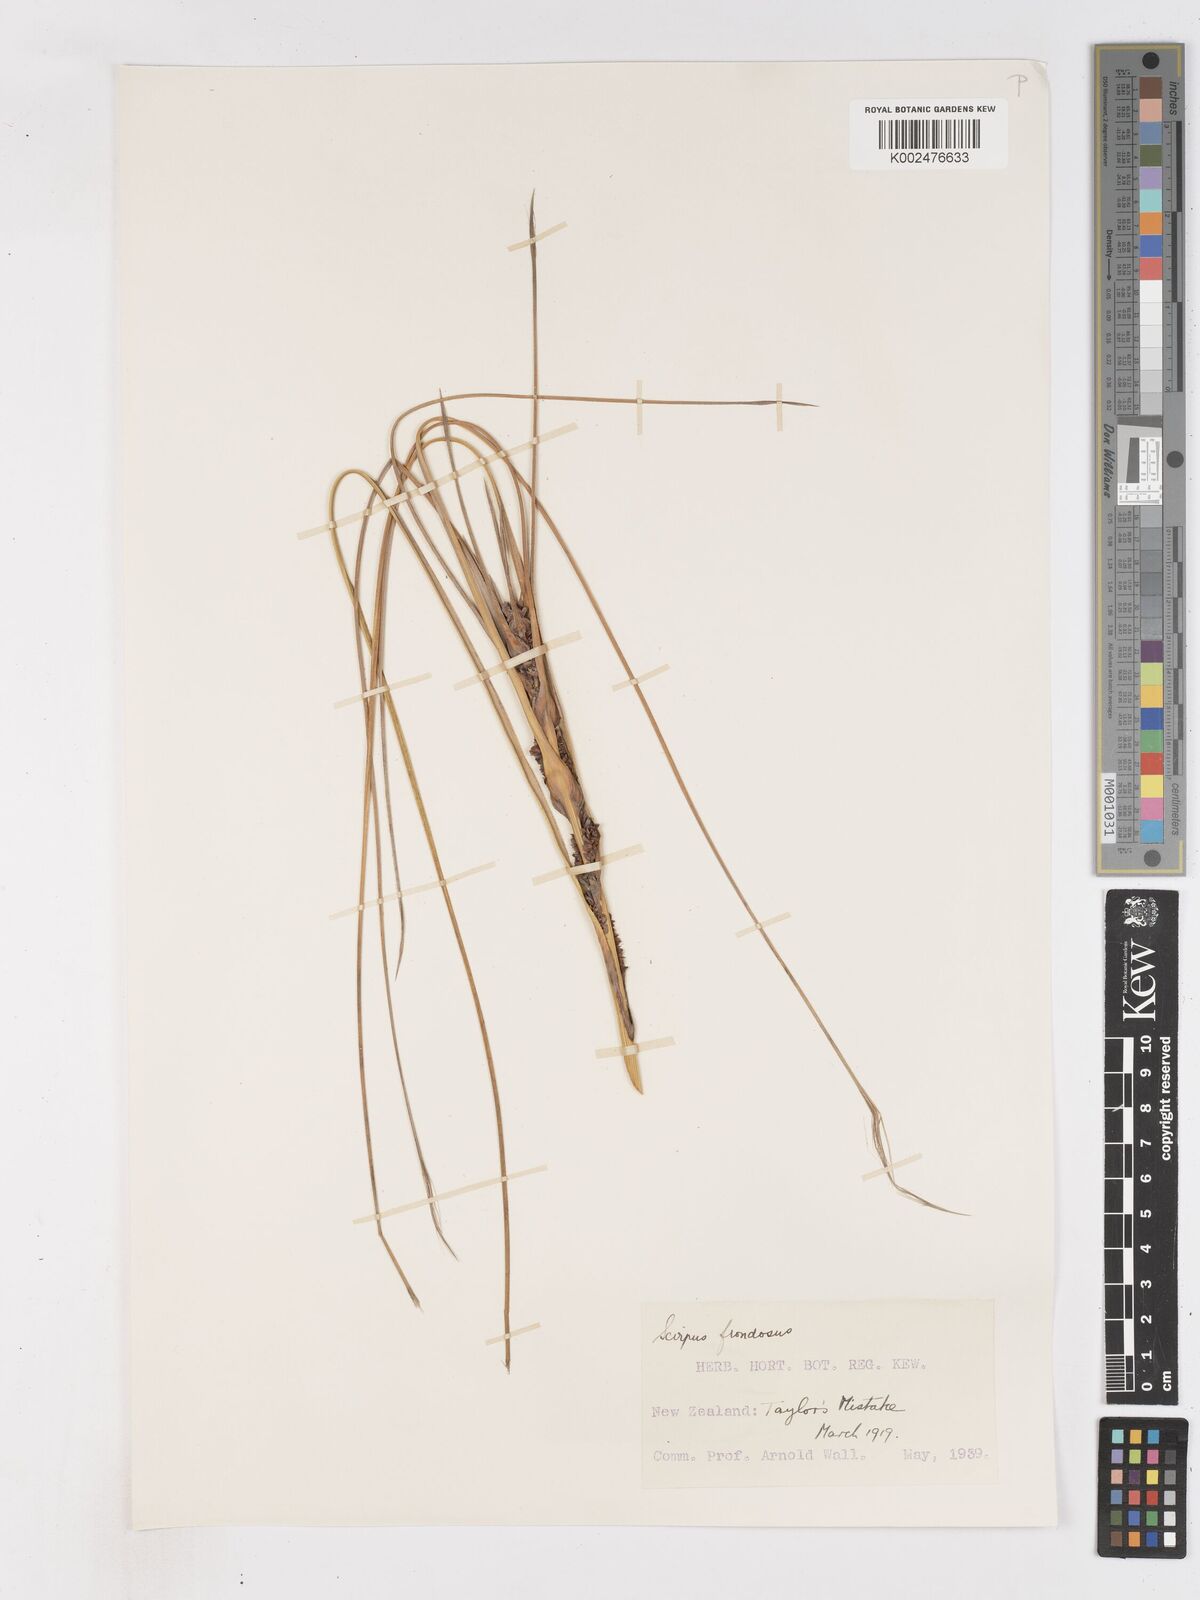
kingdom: Plantae
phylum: Tracheophyta
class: Liliopsida
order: Poales
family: Cyperaceae
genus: Ficinia
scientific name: Ficinia
